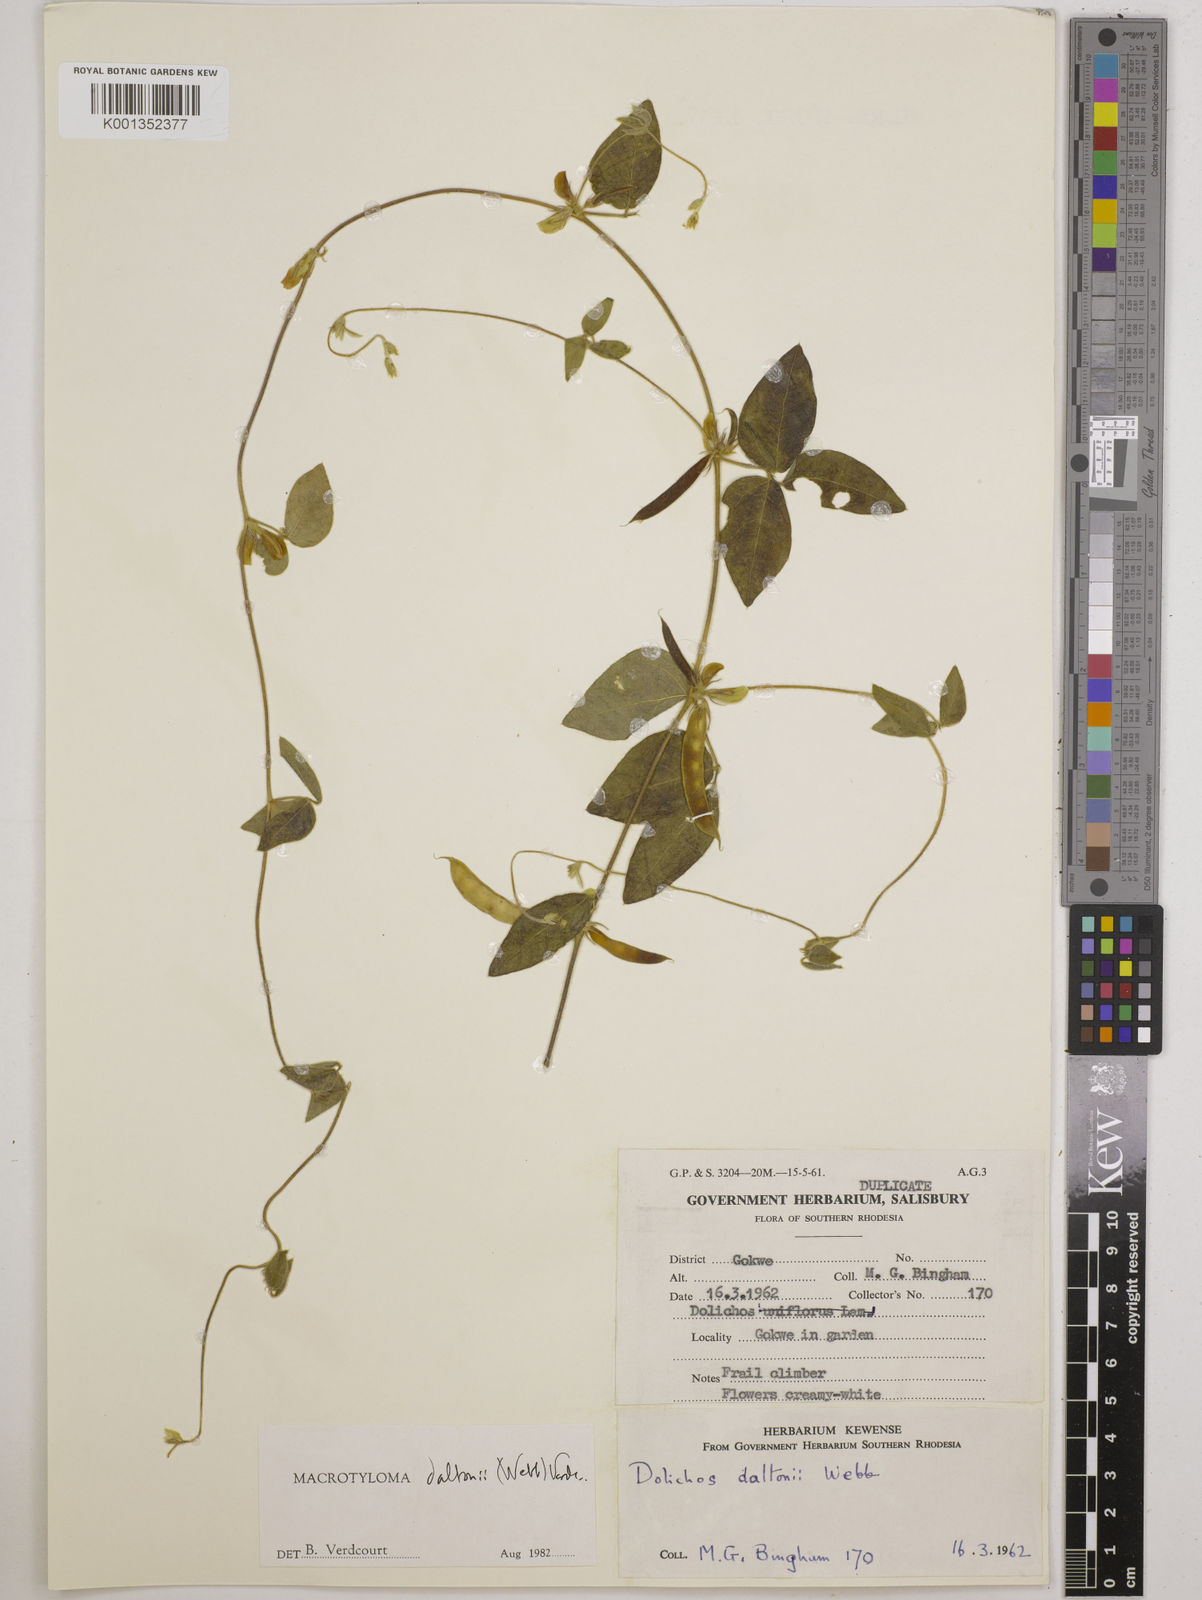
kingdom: Plantae
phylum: Tracheophyta
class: Magnoliopsida
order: Fabales
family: Fabaceae
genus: Macrotyloma
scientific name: Macrotyloma daltonii
